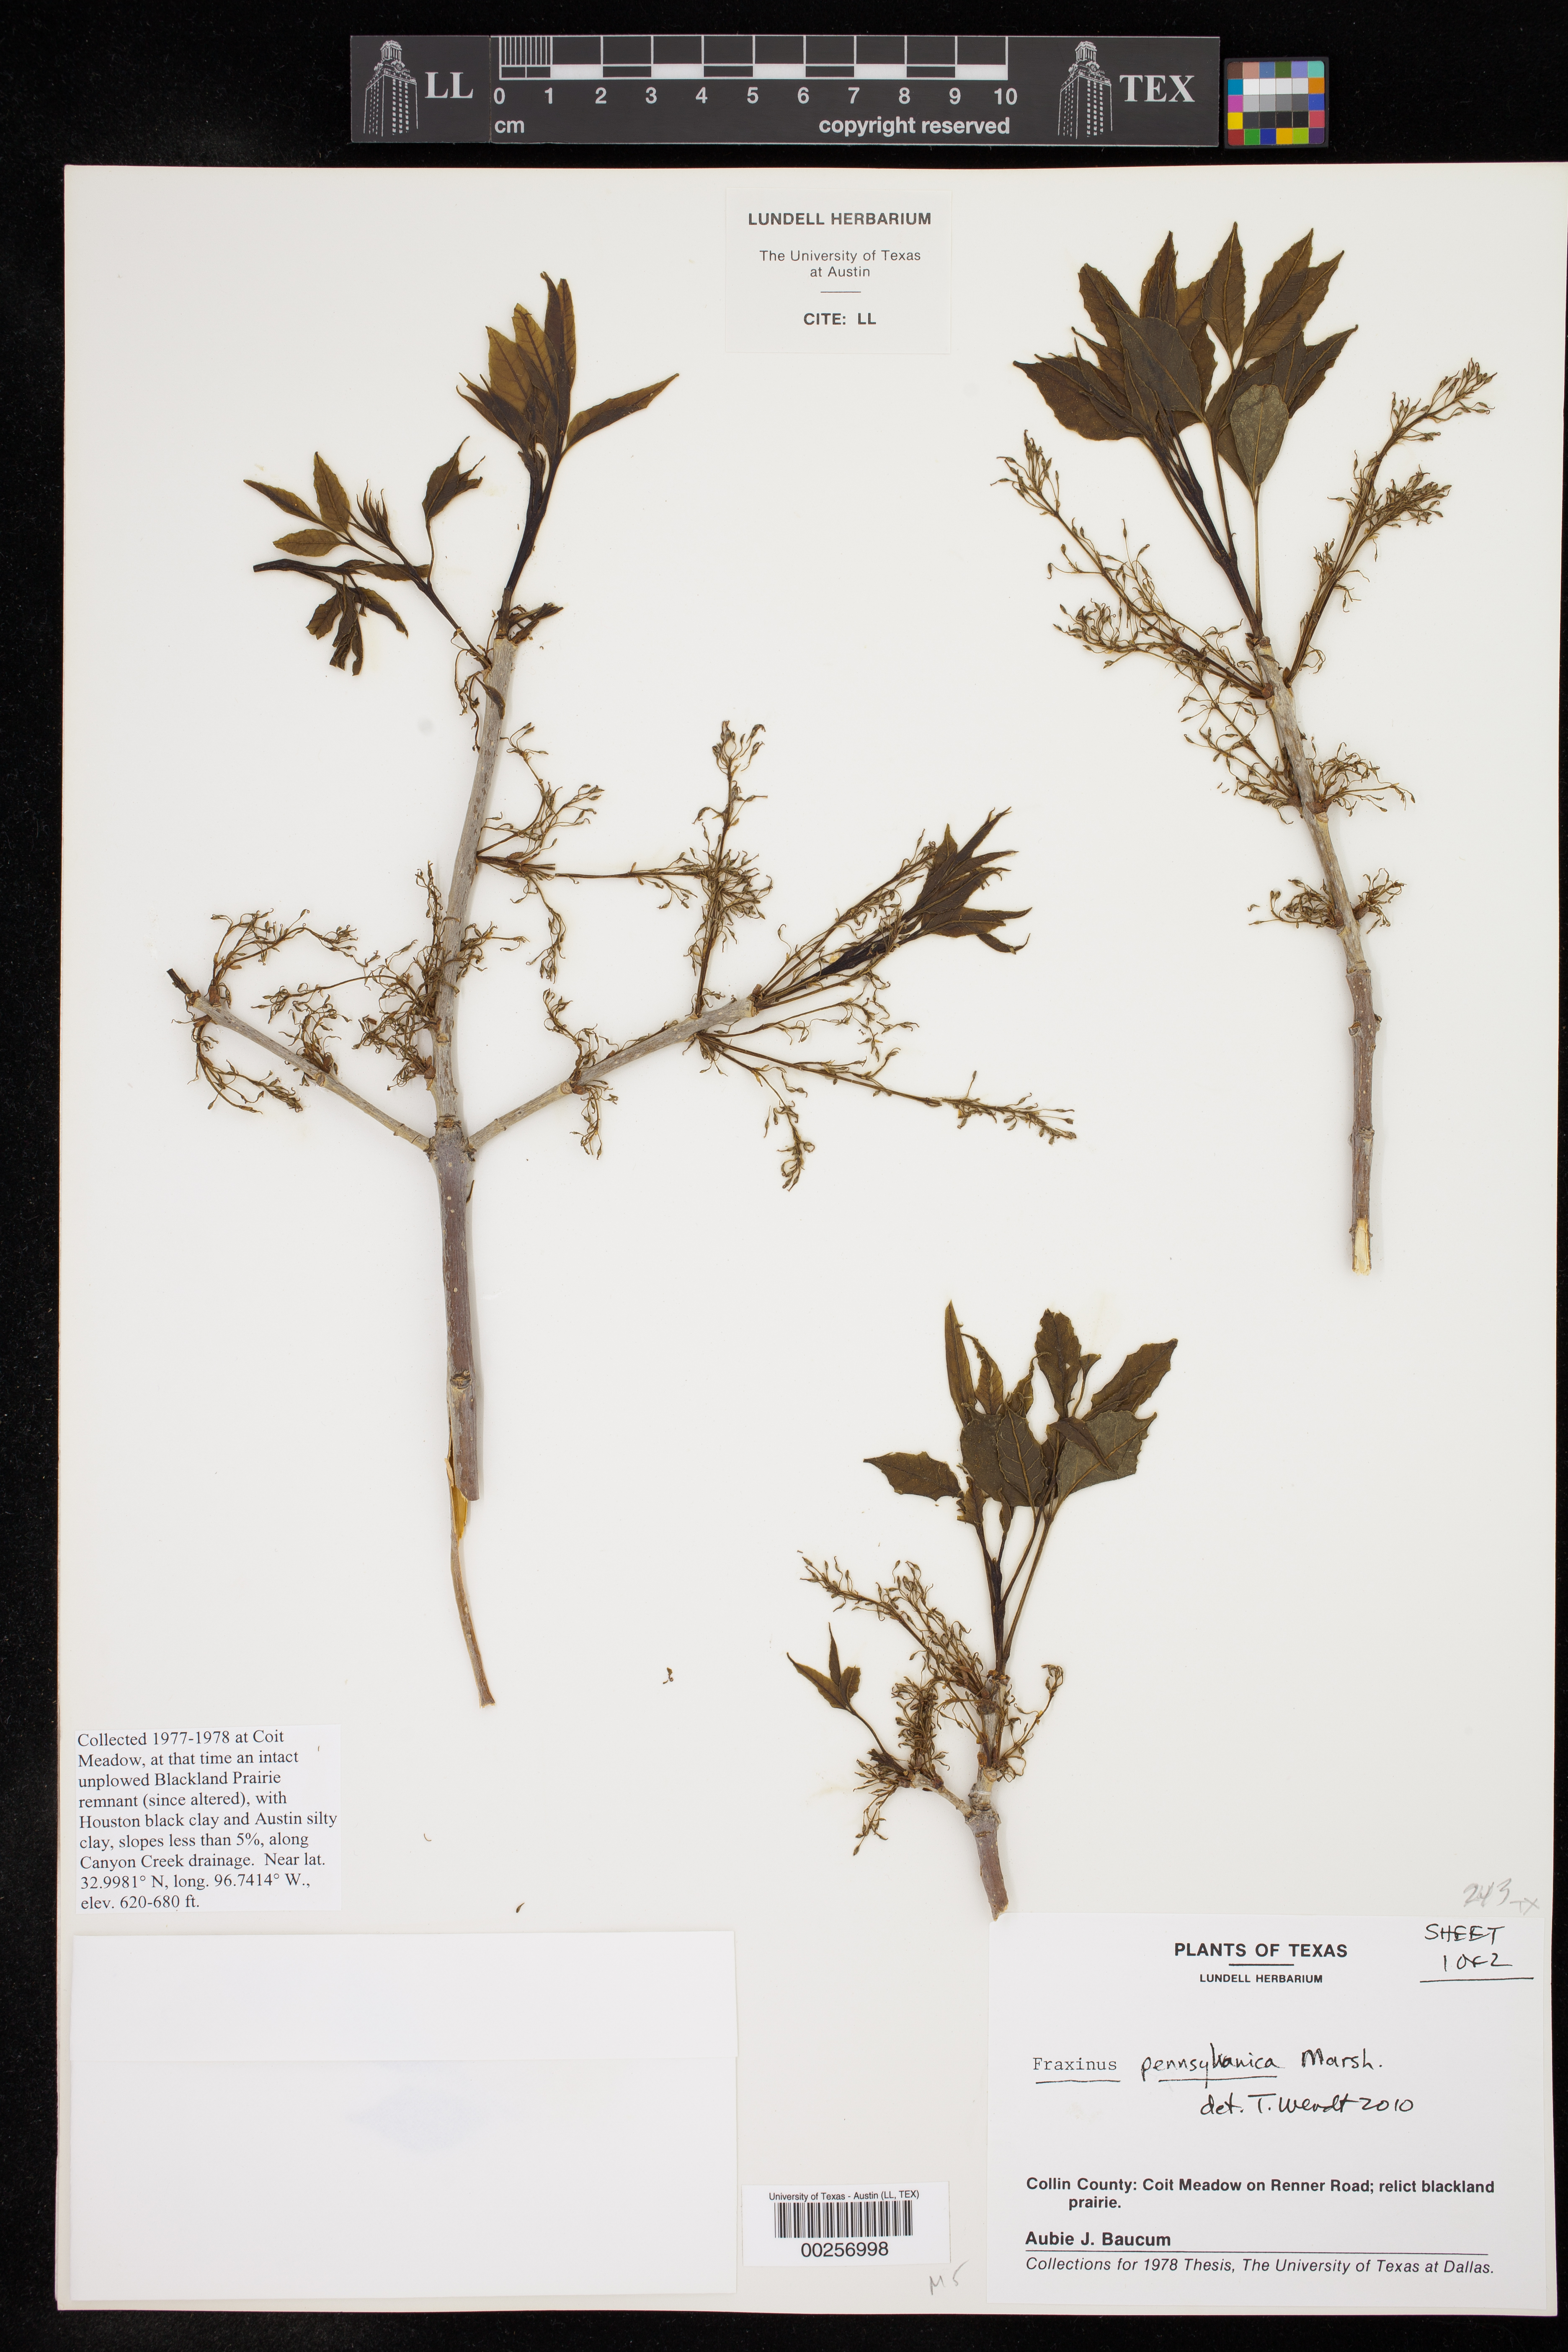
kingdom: Plantae
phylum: Tracheophyta
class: Magnoliopsida
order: Lamiales
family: Oleaceae
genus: Fraxinus
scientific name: Fraxinus pennsylvanica
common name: Green ash
